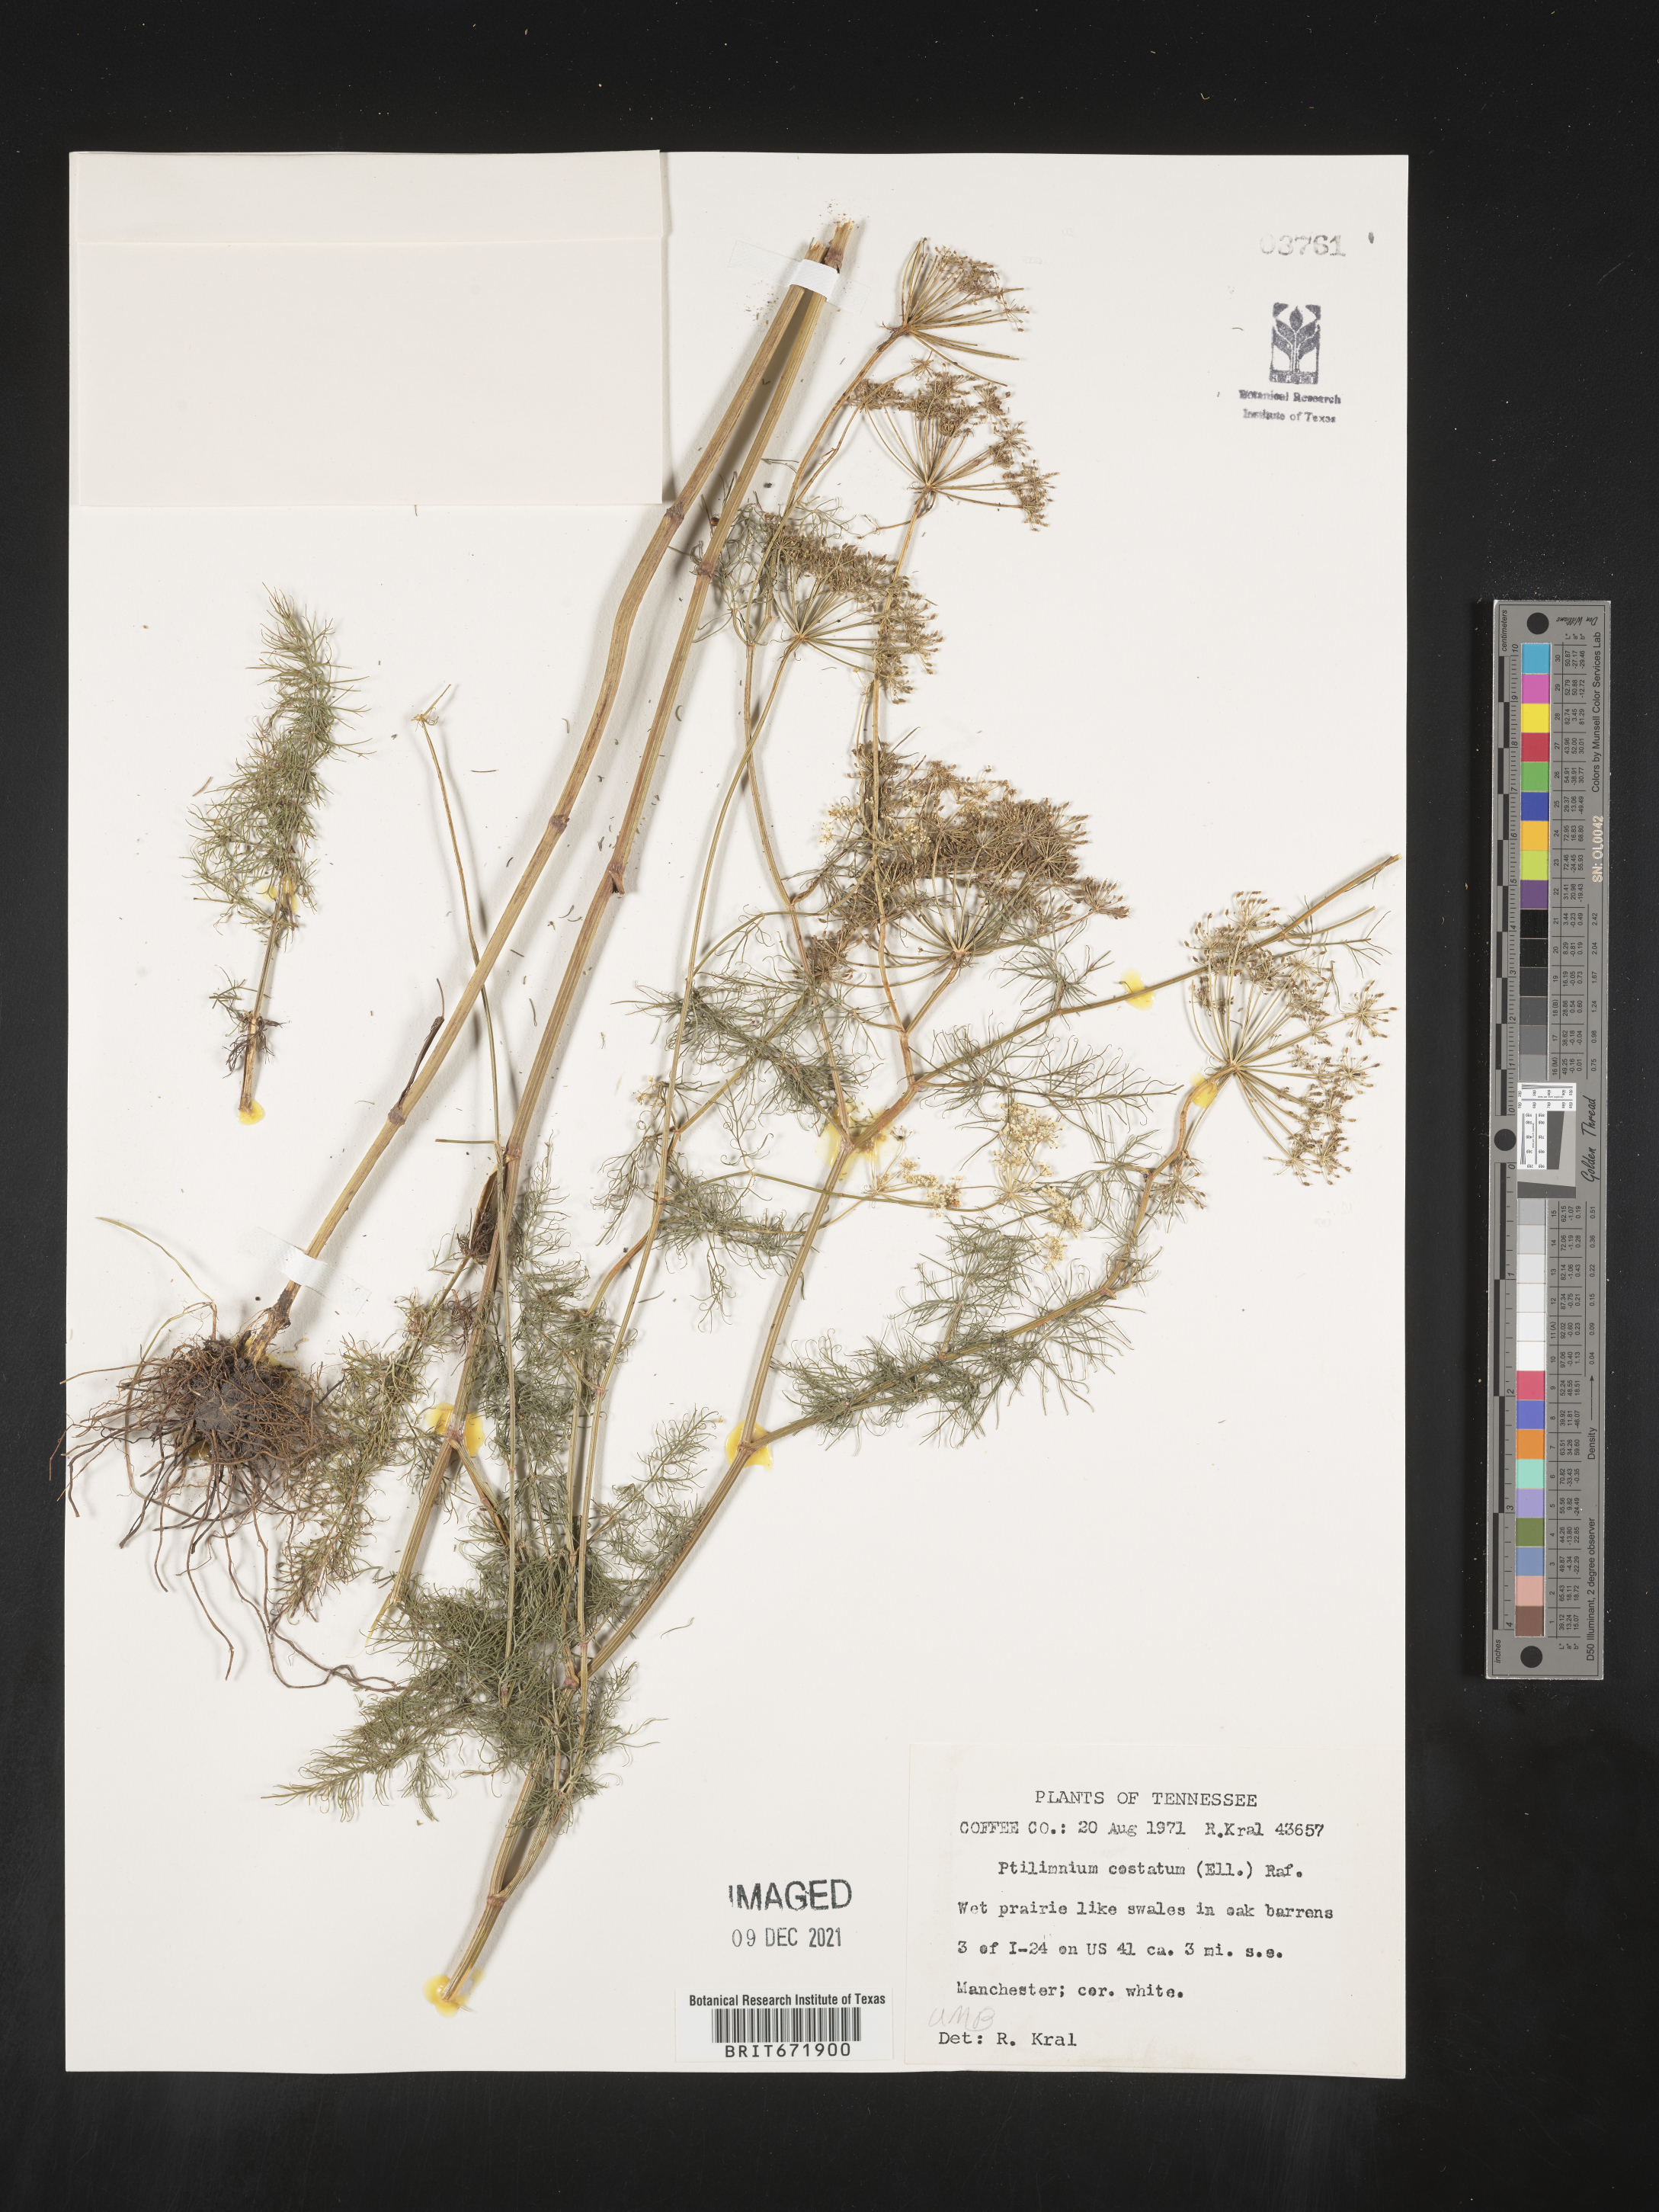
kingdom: Plantae
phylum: Tracheophyta
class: Magnoliopsida
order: Apiales
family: Apiaceae
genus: Ptilimnium
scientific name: Ptilimnium costatum
